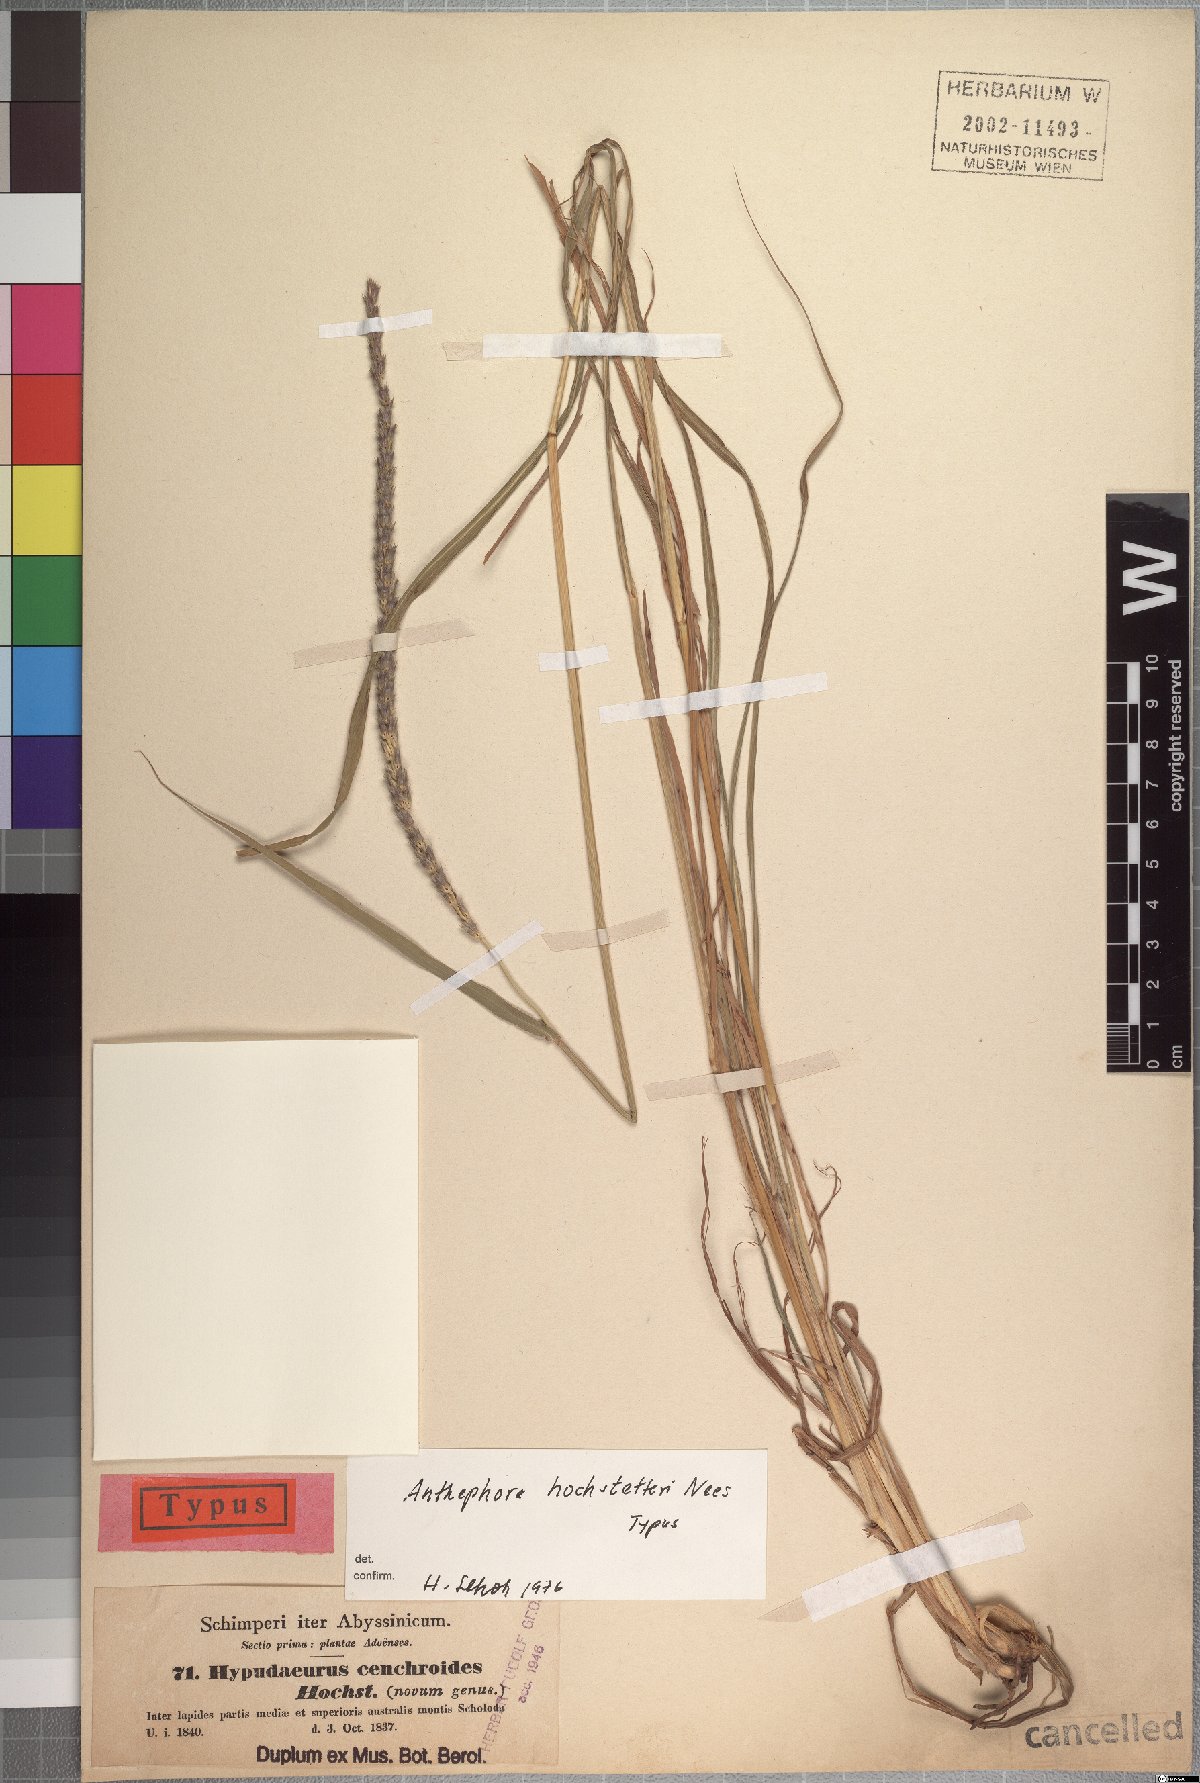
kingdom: Plantae
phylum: Tracheophyta
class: Liliopsida
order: Poales
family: Poaceae
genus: Anthephora
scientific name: Anthephora pubescens
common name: Wool grass
